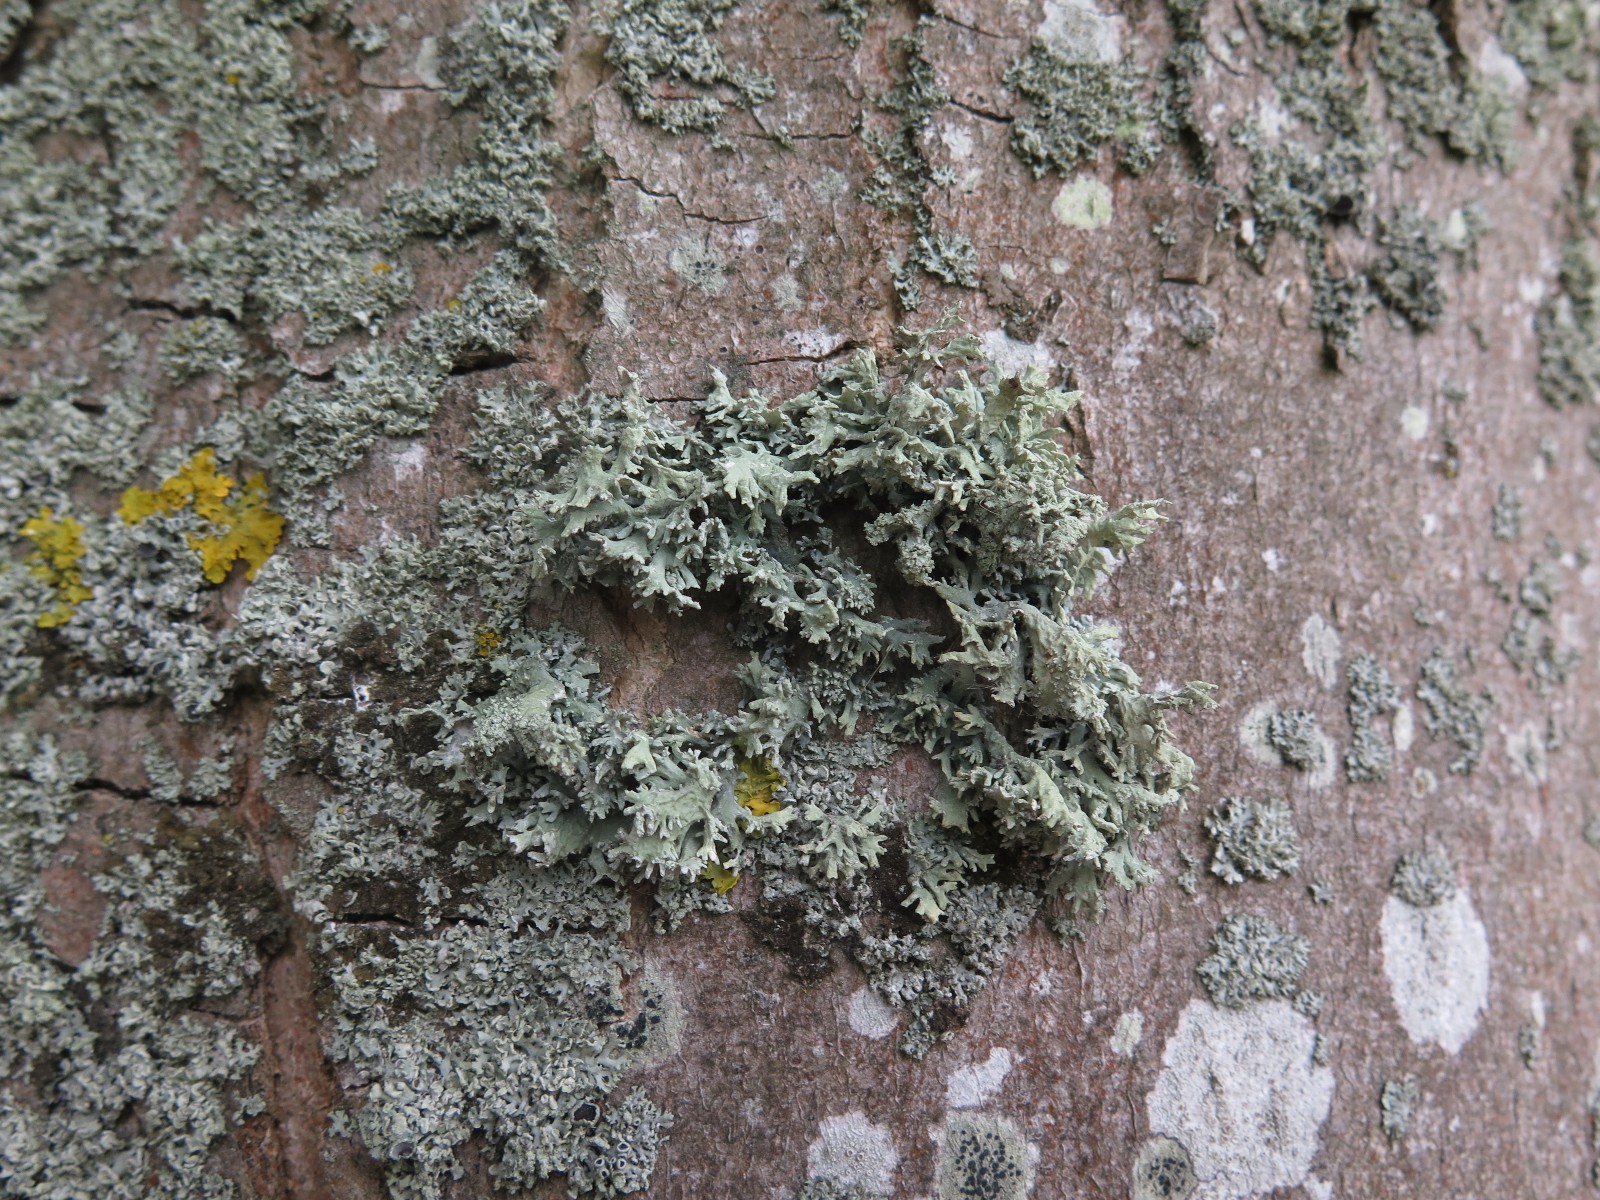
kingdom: Fungi
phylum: Ascomycota
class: Lecanoromycetes
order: Lecanorales
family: Parmeliaceae
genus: Evernia
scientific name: Evernia prunastri
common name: almindelig slåenlav
